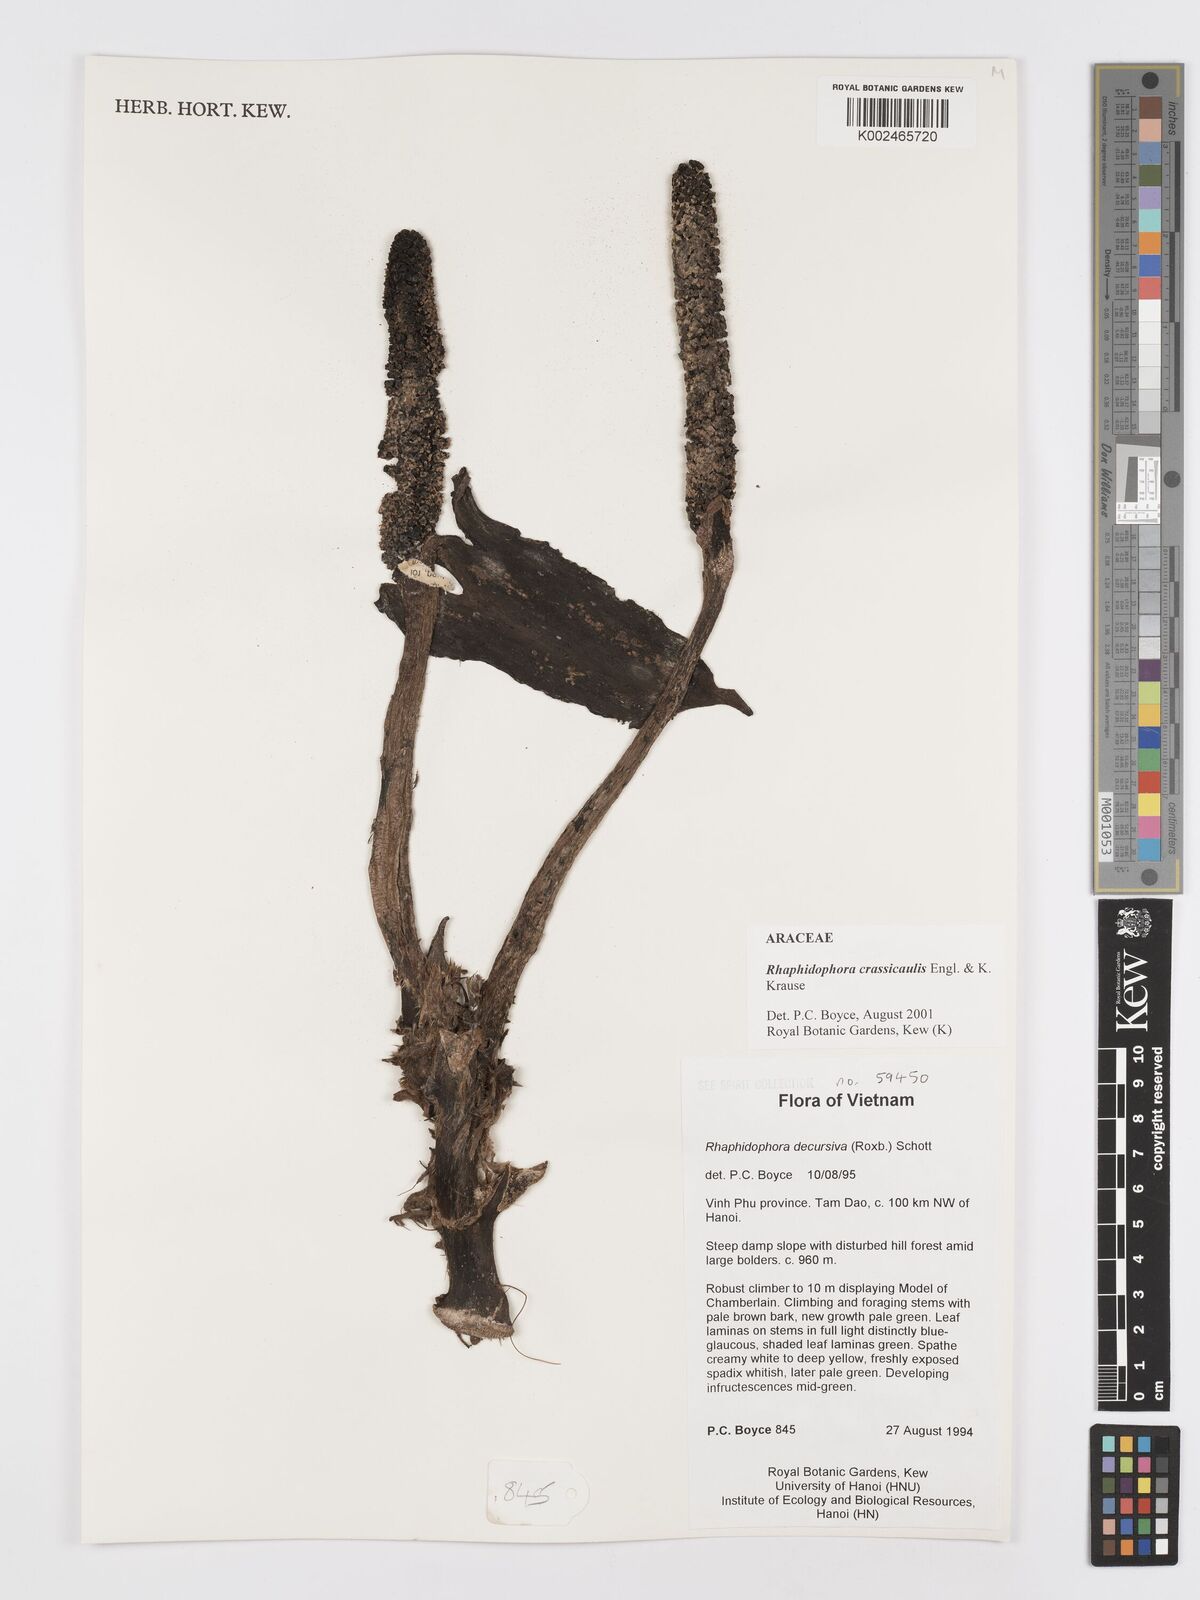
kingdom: Plantae
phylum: Tracheophyta
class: Liliopsida
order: Alismatales
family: Araceae
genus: Rhaphidophora
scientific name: Rhaphidophora crassicaulis
